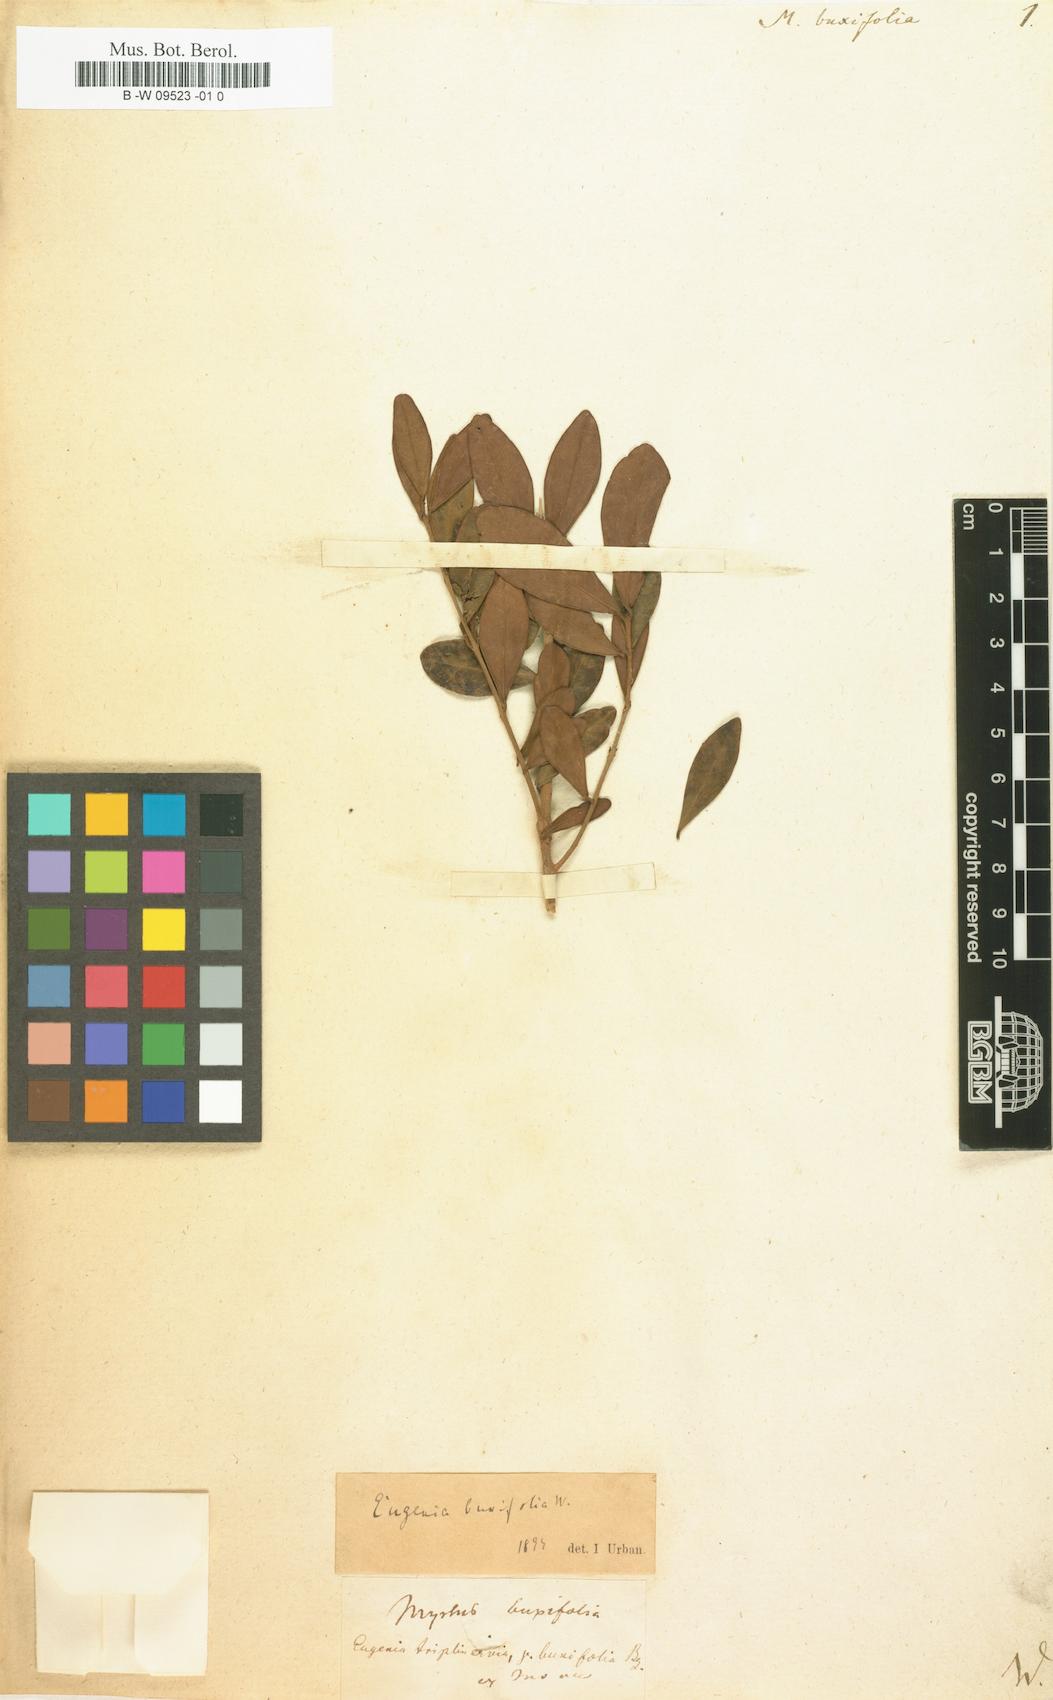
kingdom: Plantae
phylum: Tracheophyta
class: Magnoliopsida
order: Myrtales
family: Myrtaceae
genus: Eugenia
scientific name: Eugenia buxifolia
